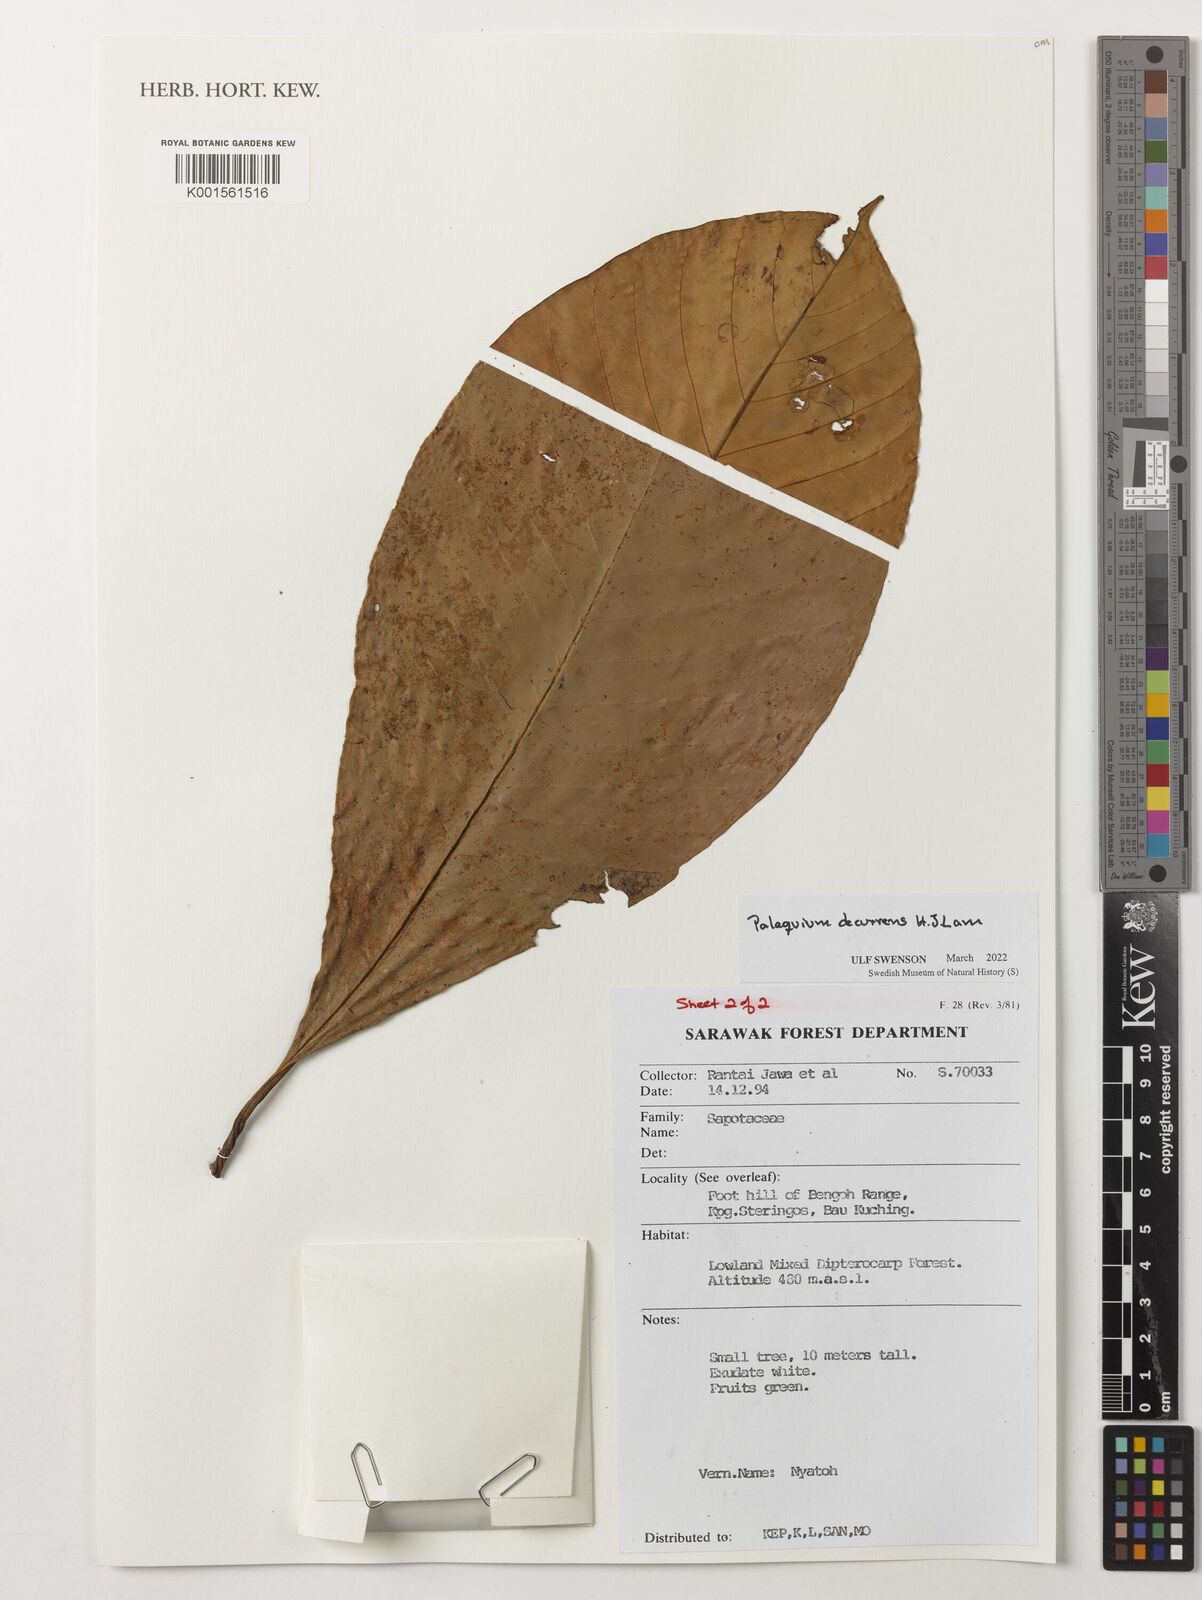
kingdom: Plantae
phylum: Tracheophyta
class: Magnoliopsida
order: Ericales
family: Sapotaceae
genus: Palaquium
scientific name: Palaquium decurrens
